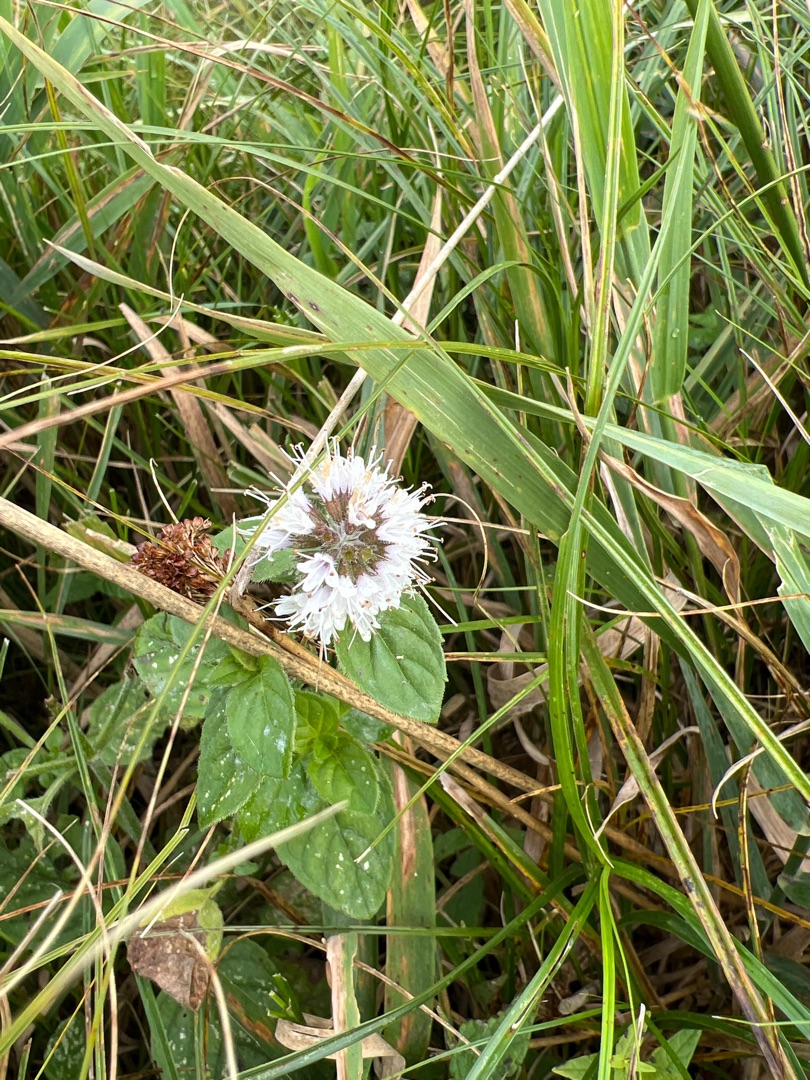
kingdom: Plantae
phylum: Tracheophyta
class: Magnoliopsida
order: Lamiales
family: Lamiaceae
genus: Mentha
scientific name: Mentha aquatica
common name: Vand-mynte
